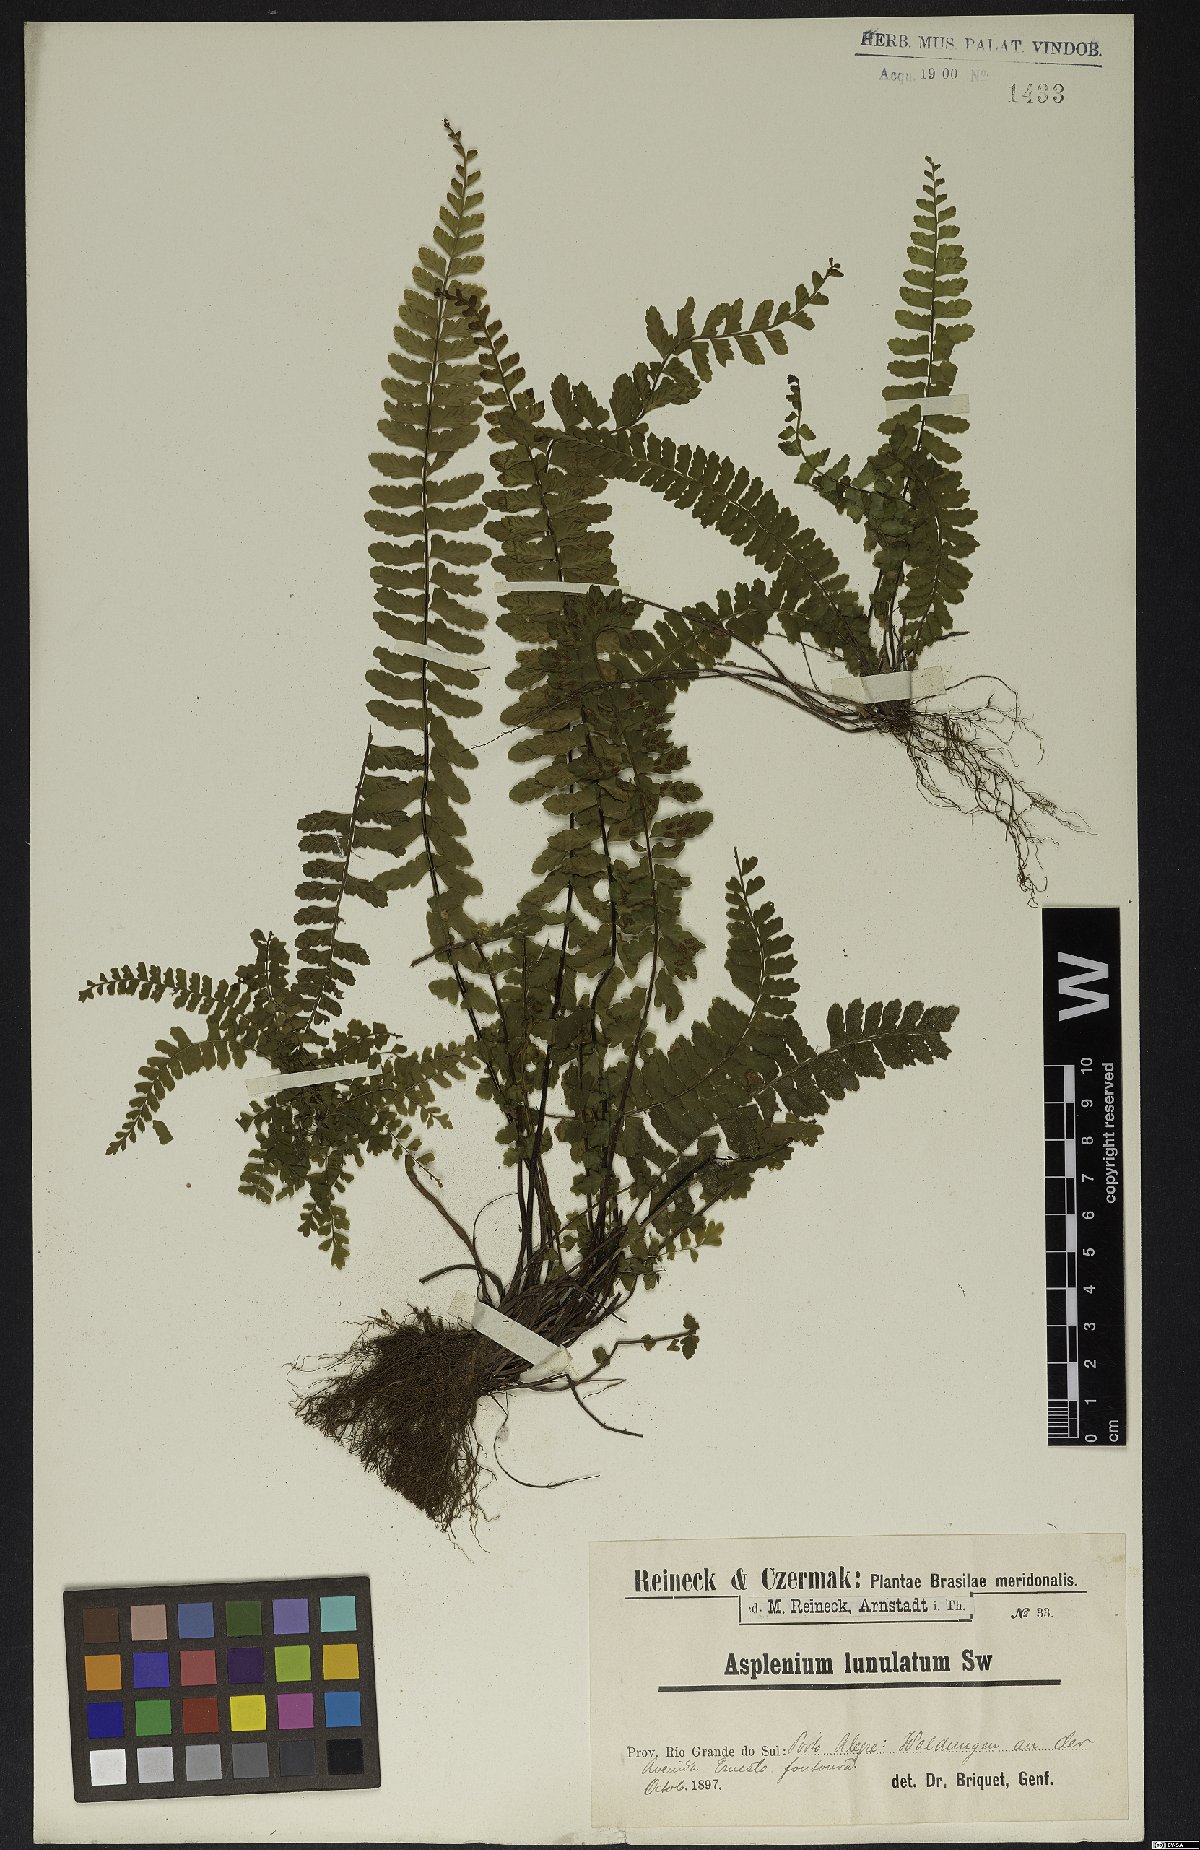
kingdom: Plantae
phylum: Tracheophyta
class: Polypodiopsida
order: Polypodiales
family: Aspleniaceae
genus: Asplenium
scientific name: Asplenium lunulatum
